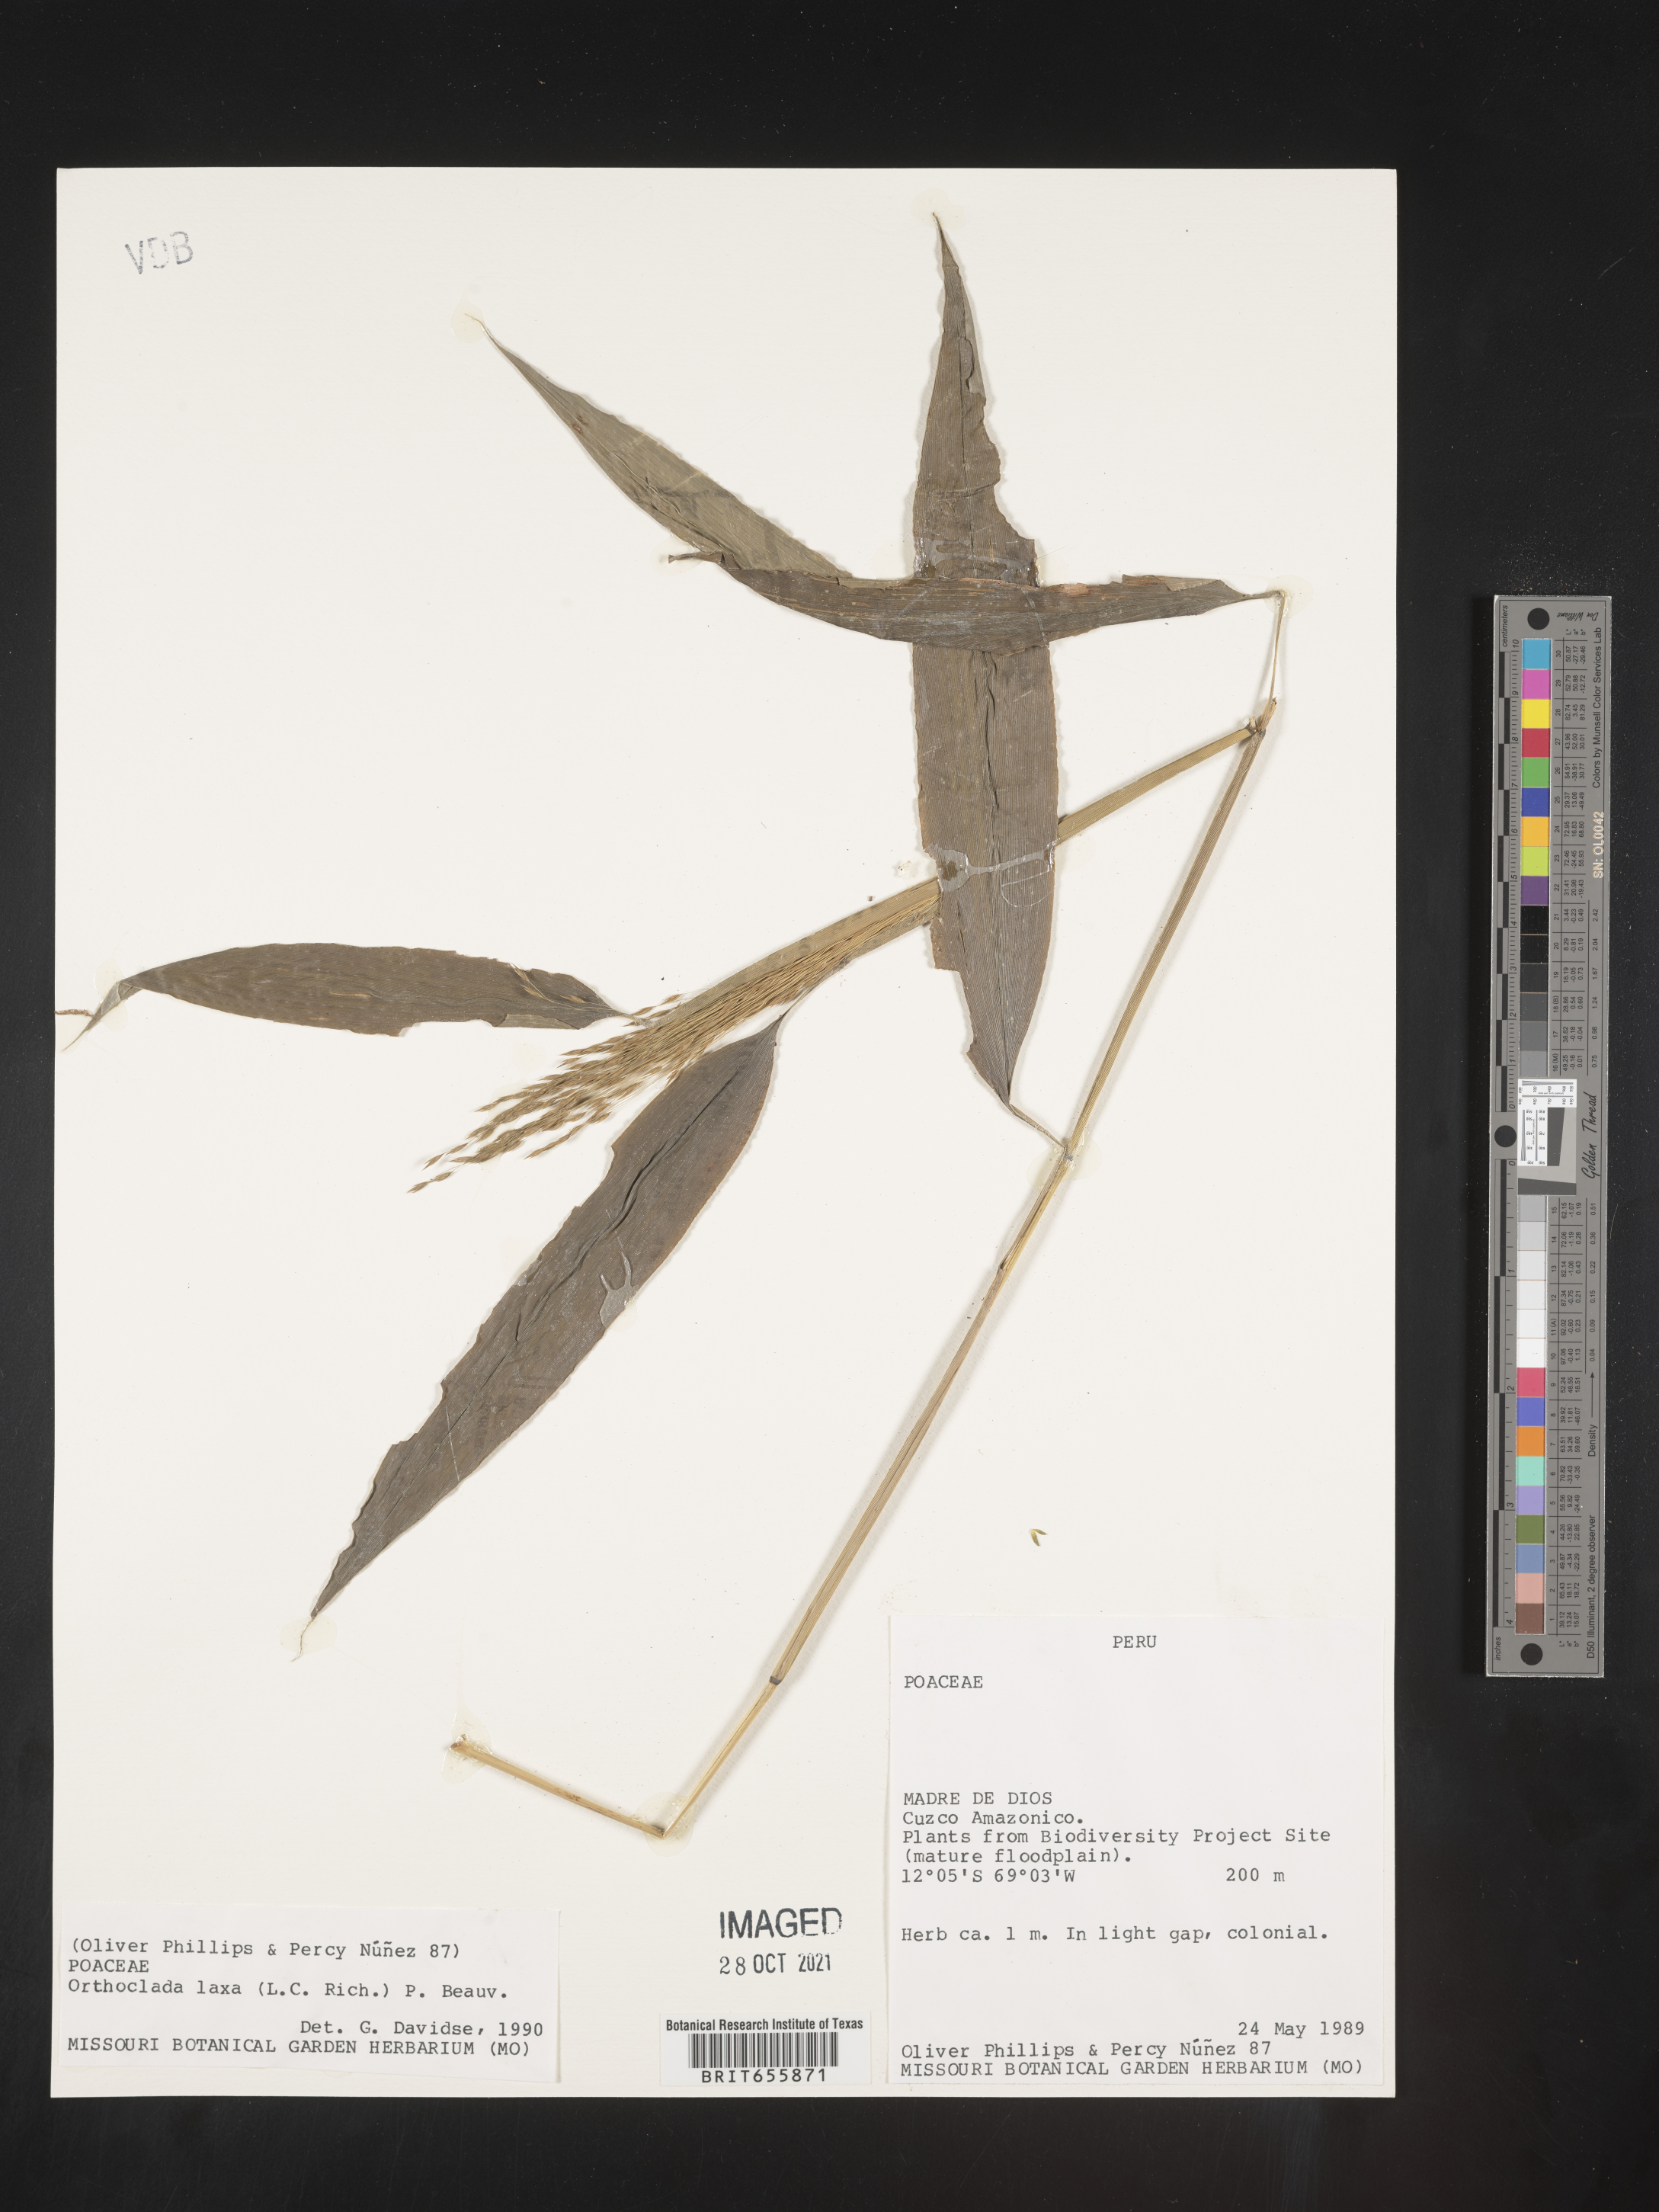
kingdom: Plantae
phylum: Tracheophyta
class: Liliopsida
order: Poales
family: Poaceae
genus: Orthoclada
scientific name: Orthoclada
